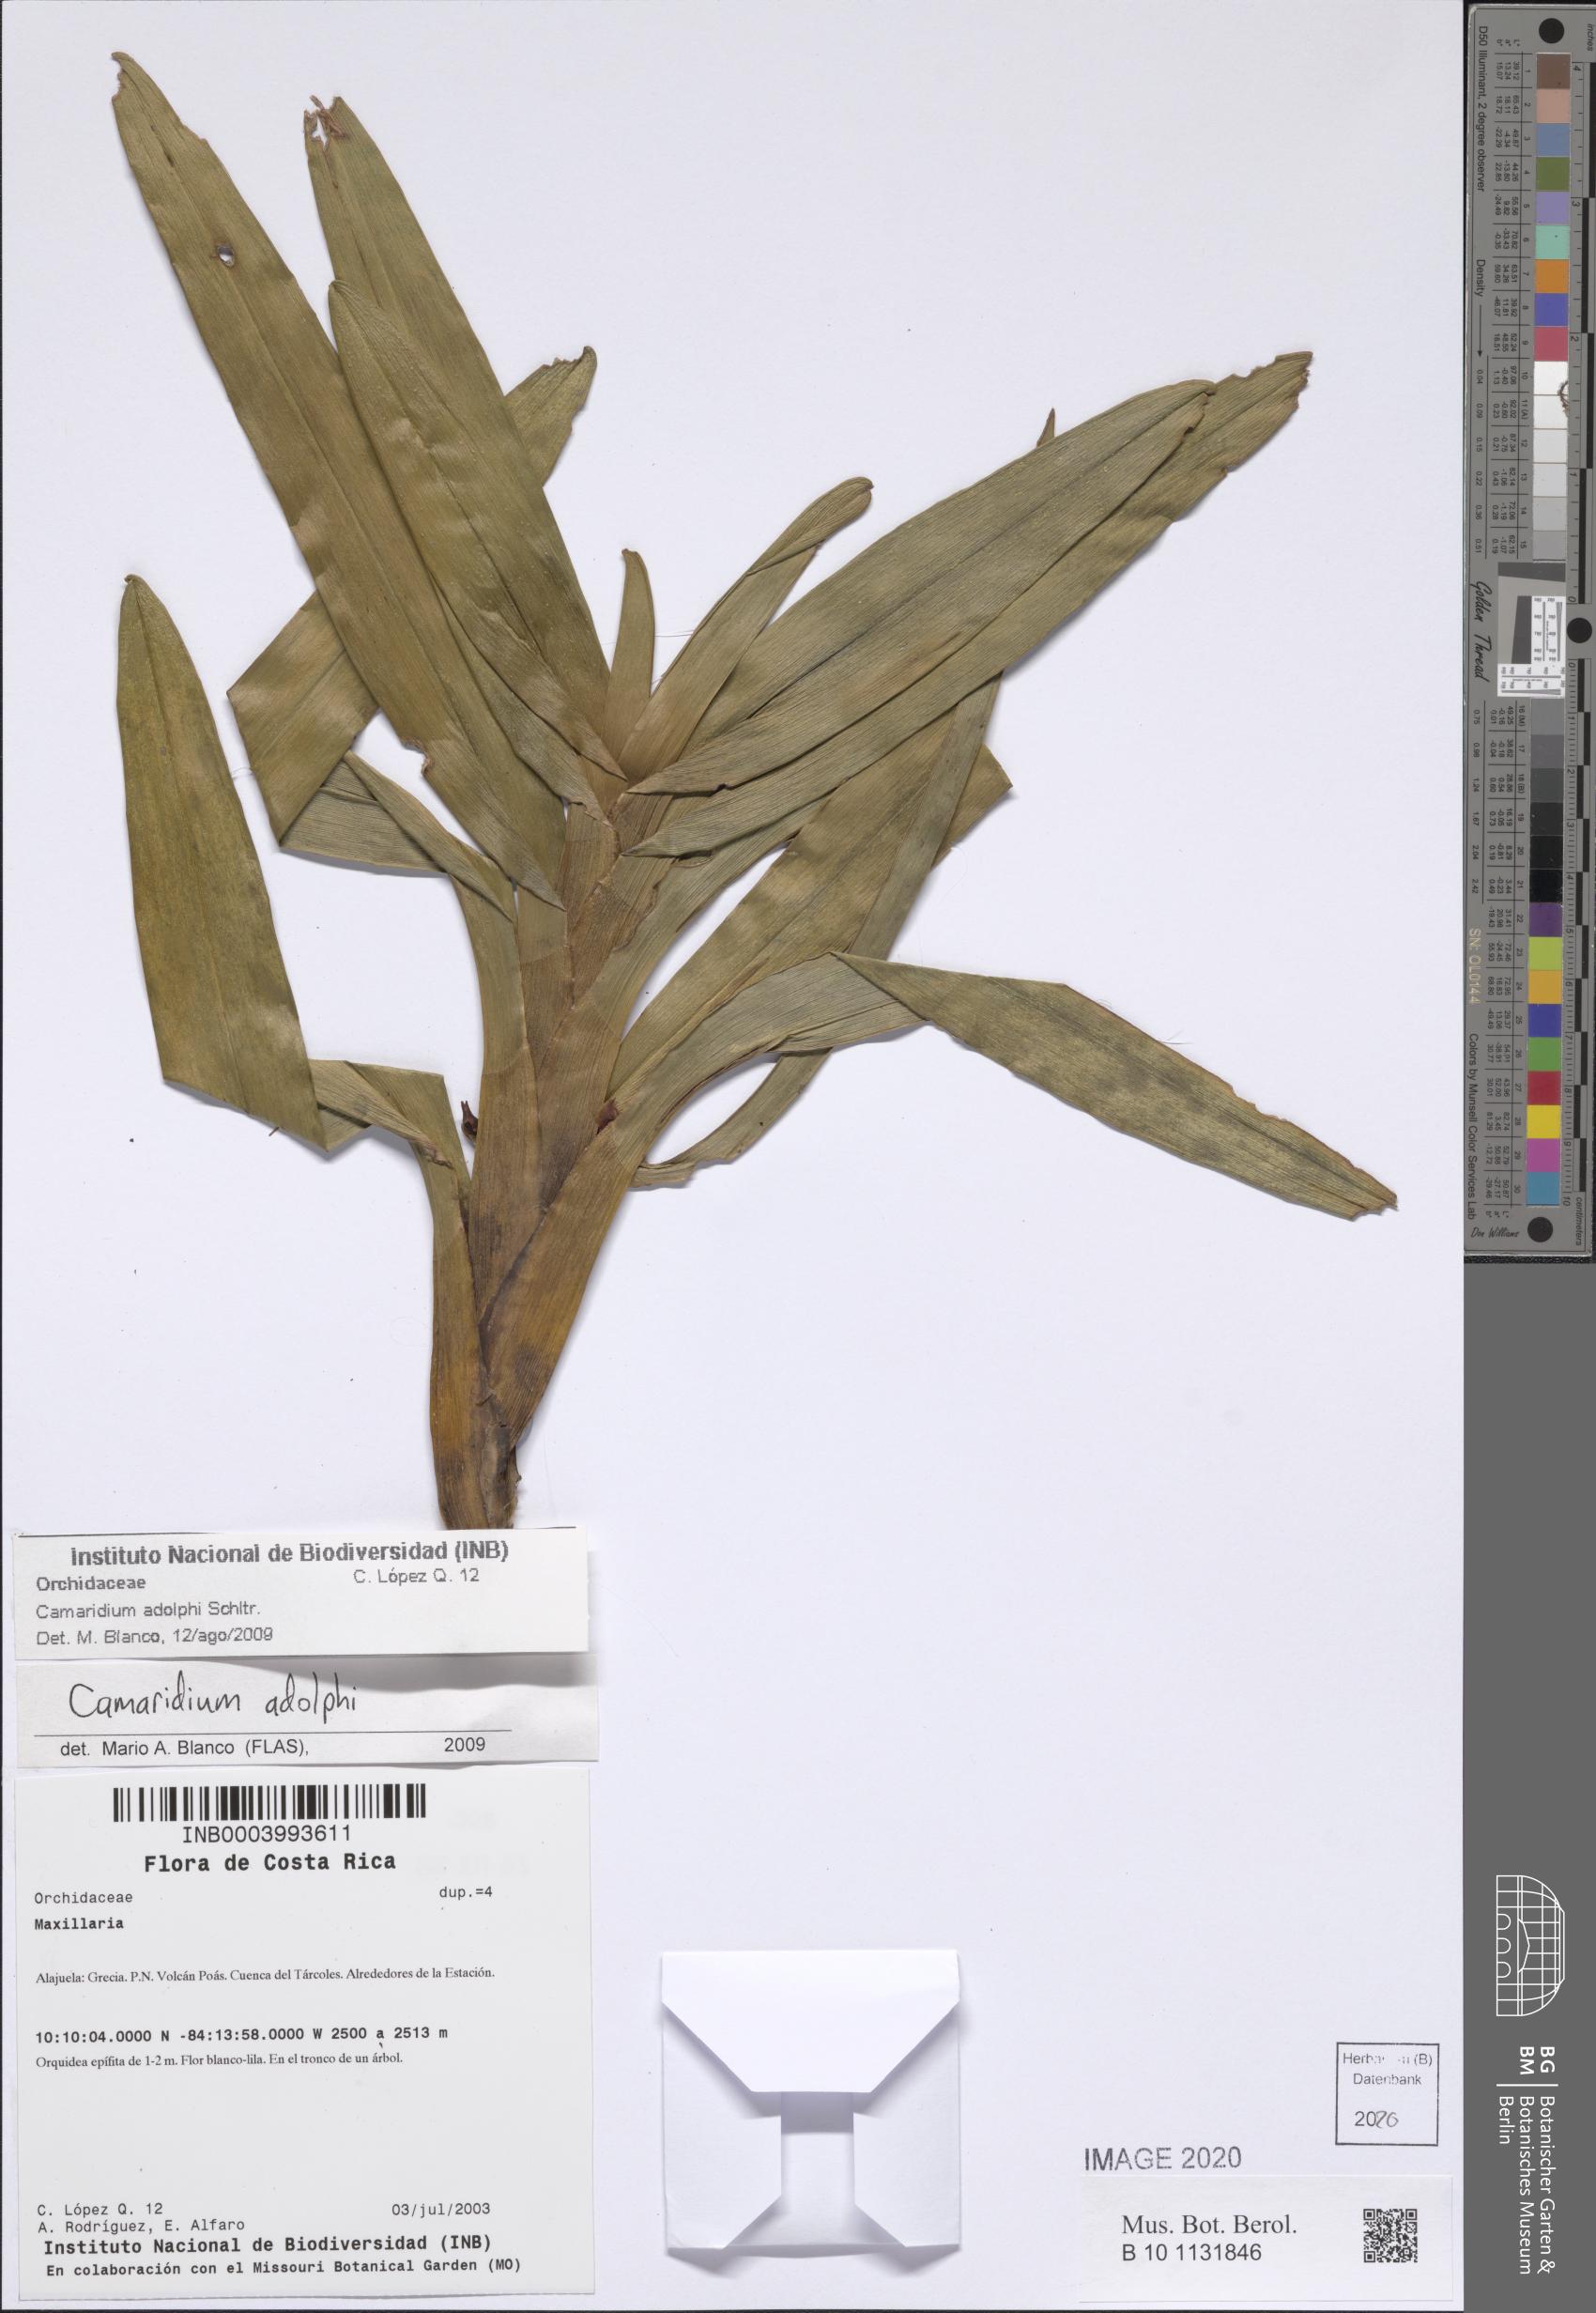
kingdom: Plantae
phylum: Tracheophyta
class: Liliopsida
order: Asparagales
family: Orchidaceae
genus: Maxillaria
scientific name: Maxillaria adolphi
